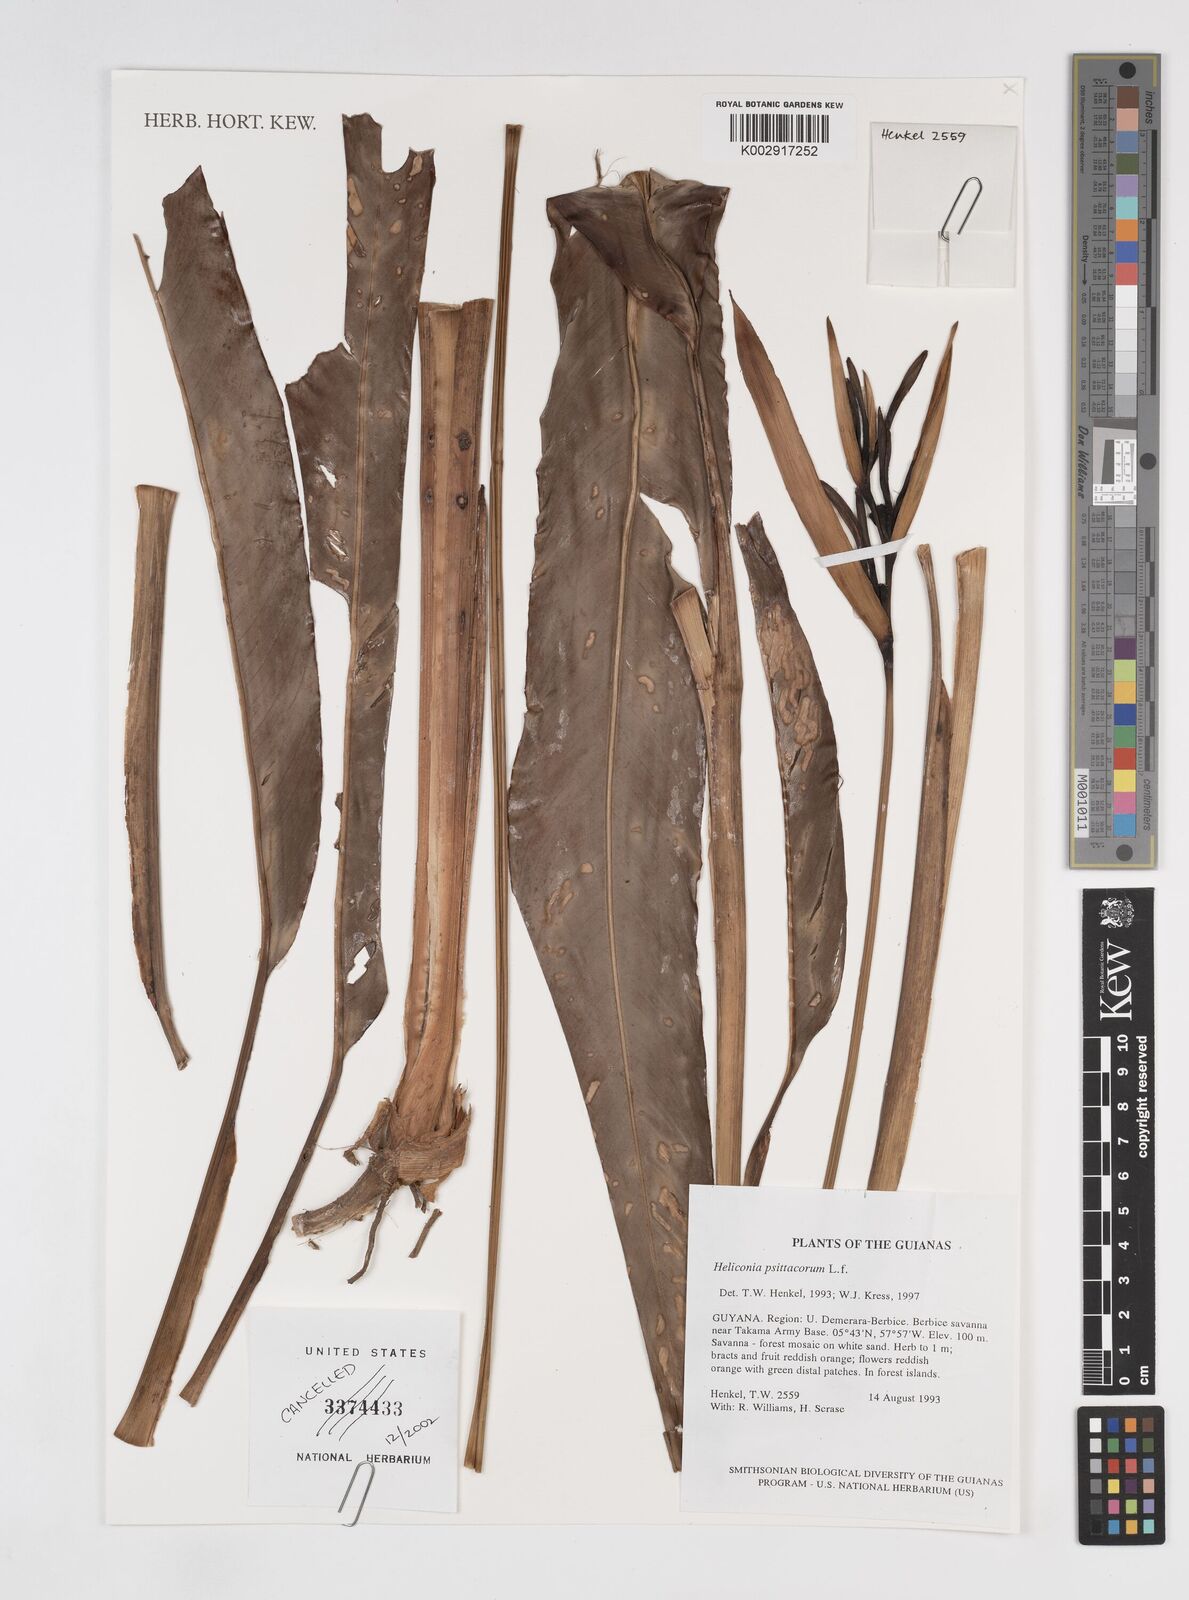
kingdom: Plantae
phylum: Tracheophyta
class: Liliopsida
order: Zingiberales
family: Heliconiaceae
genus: Heliconia
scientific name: Heliconia psittacorum
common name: Parrot's-flower
